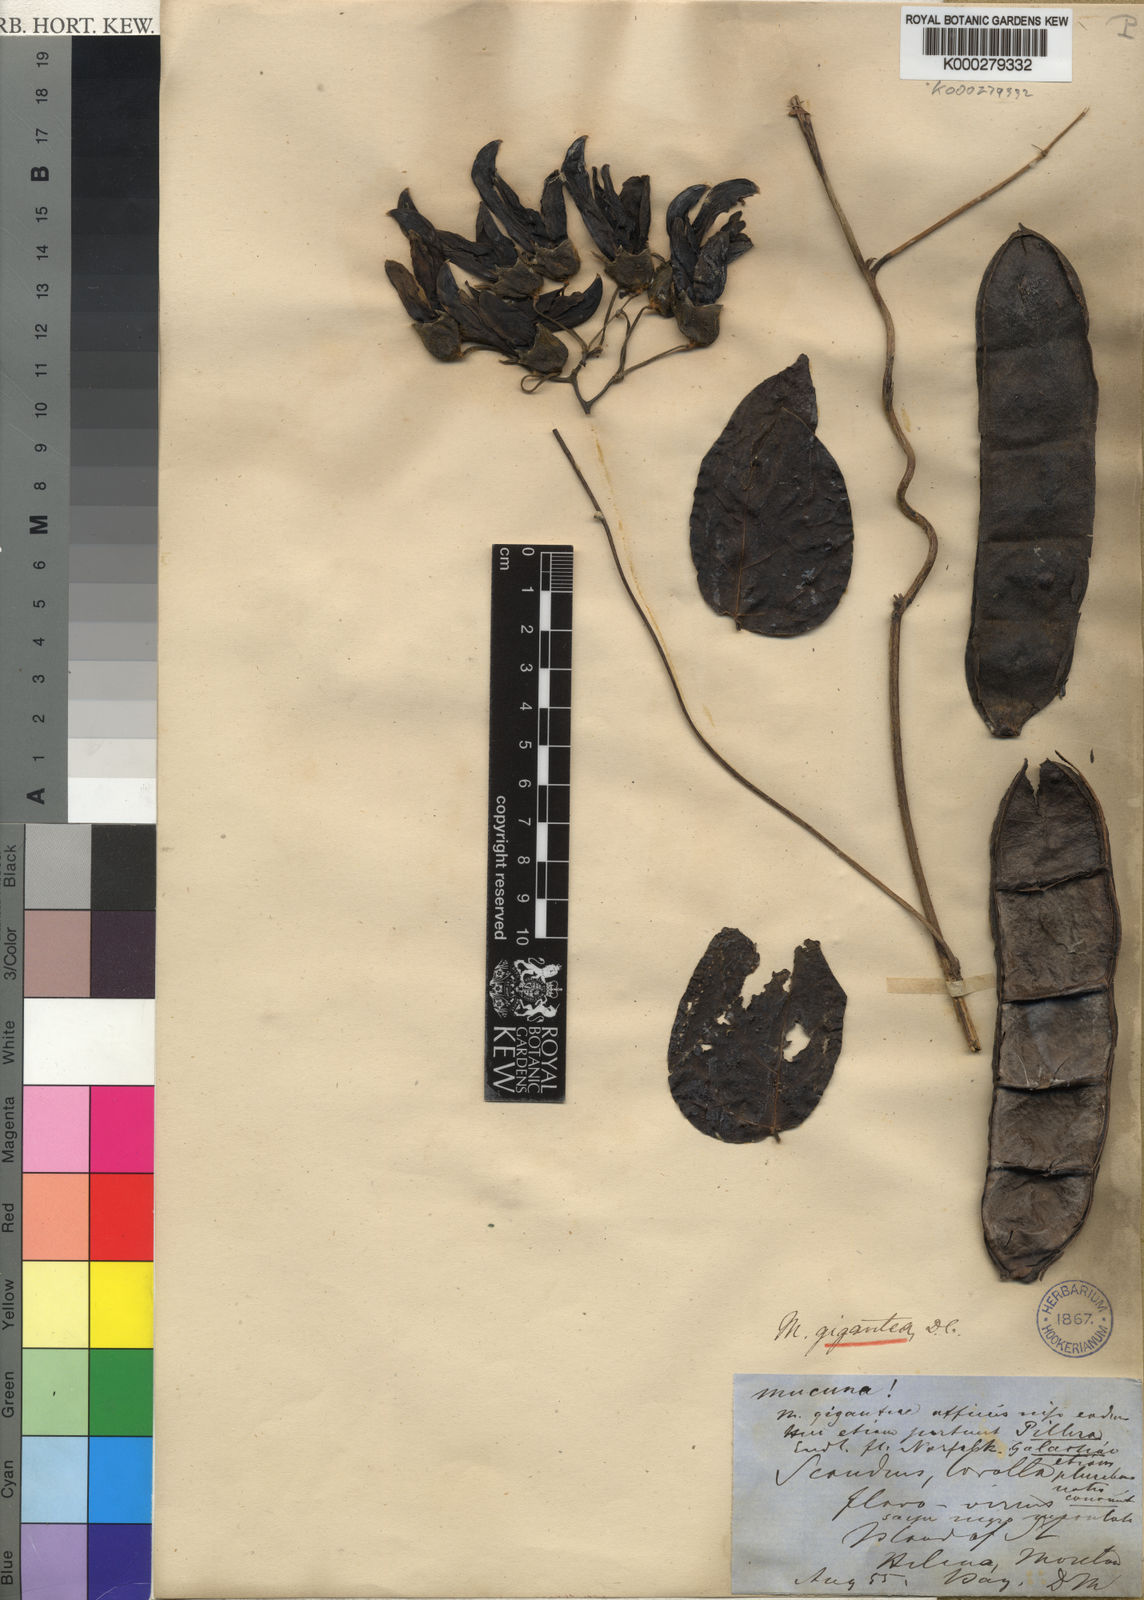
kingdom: Plantae
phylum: Tracheophyta
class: Magnoliopsida
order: Fabales
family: Fabaceae
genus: Mucuna
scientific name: Mucuna gigantea
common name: Black-bean
